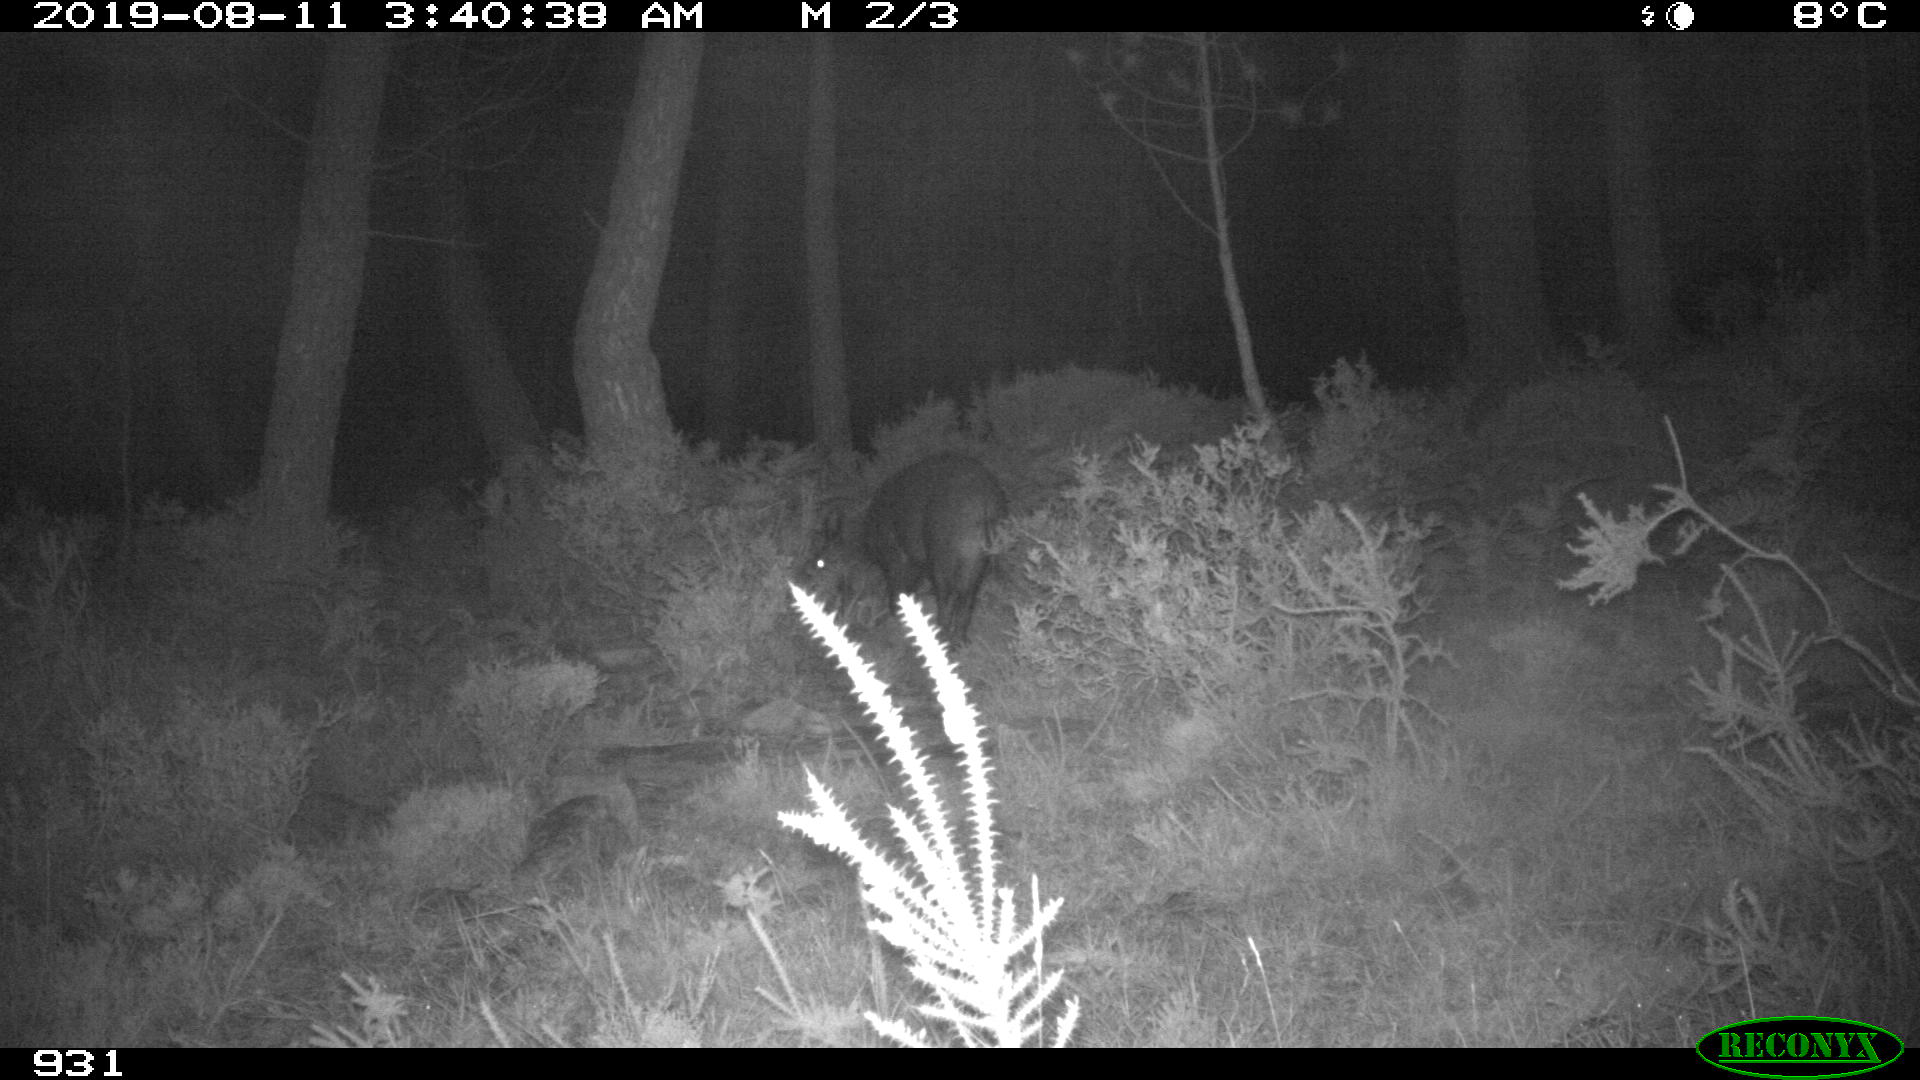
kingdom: Animalia
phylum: Chordata
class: Mammalia
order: Artiodactyla
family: Suidae
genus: Sus
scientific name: Sus scrofa
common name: Wild boar
